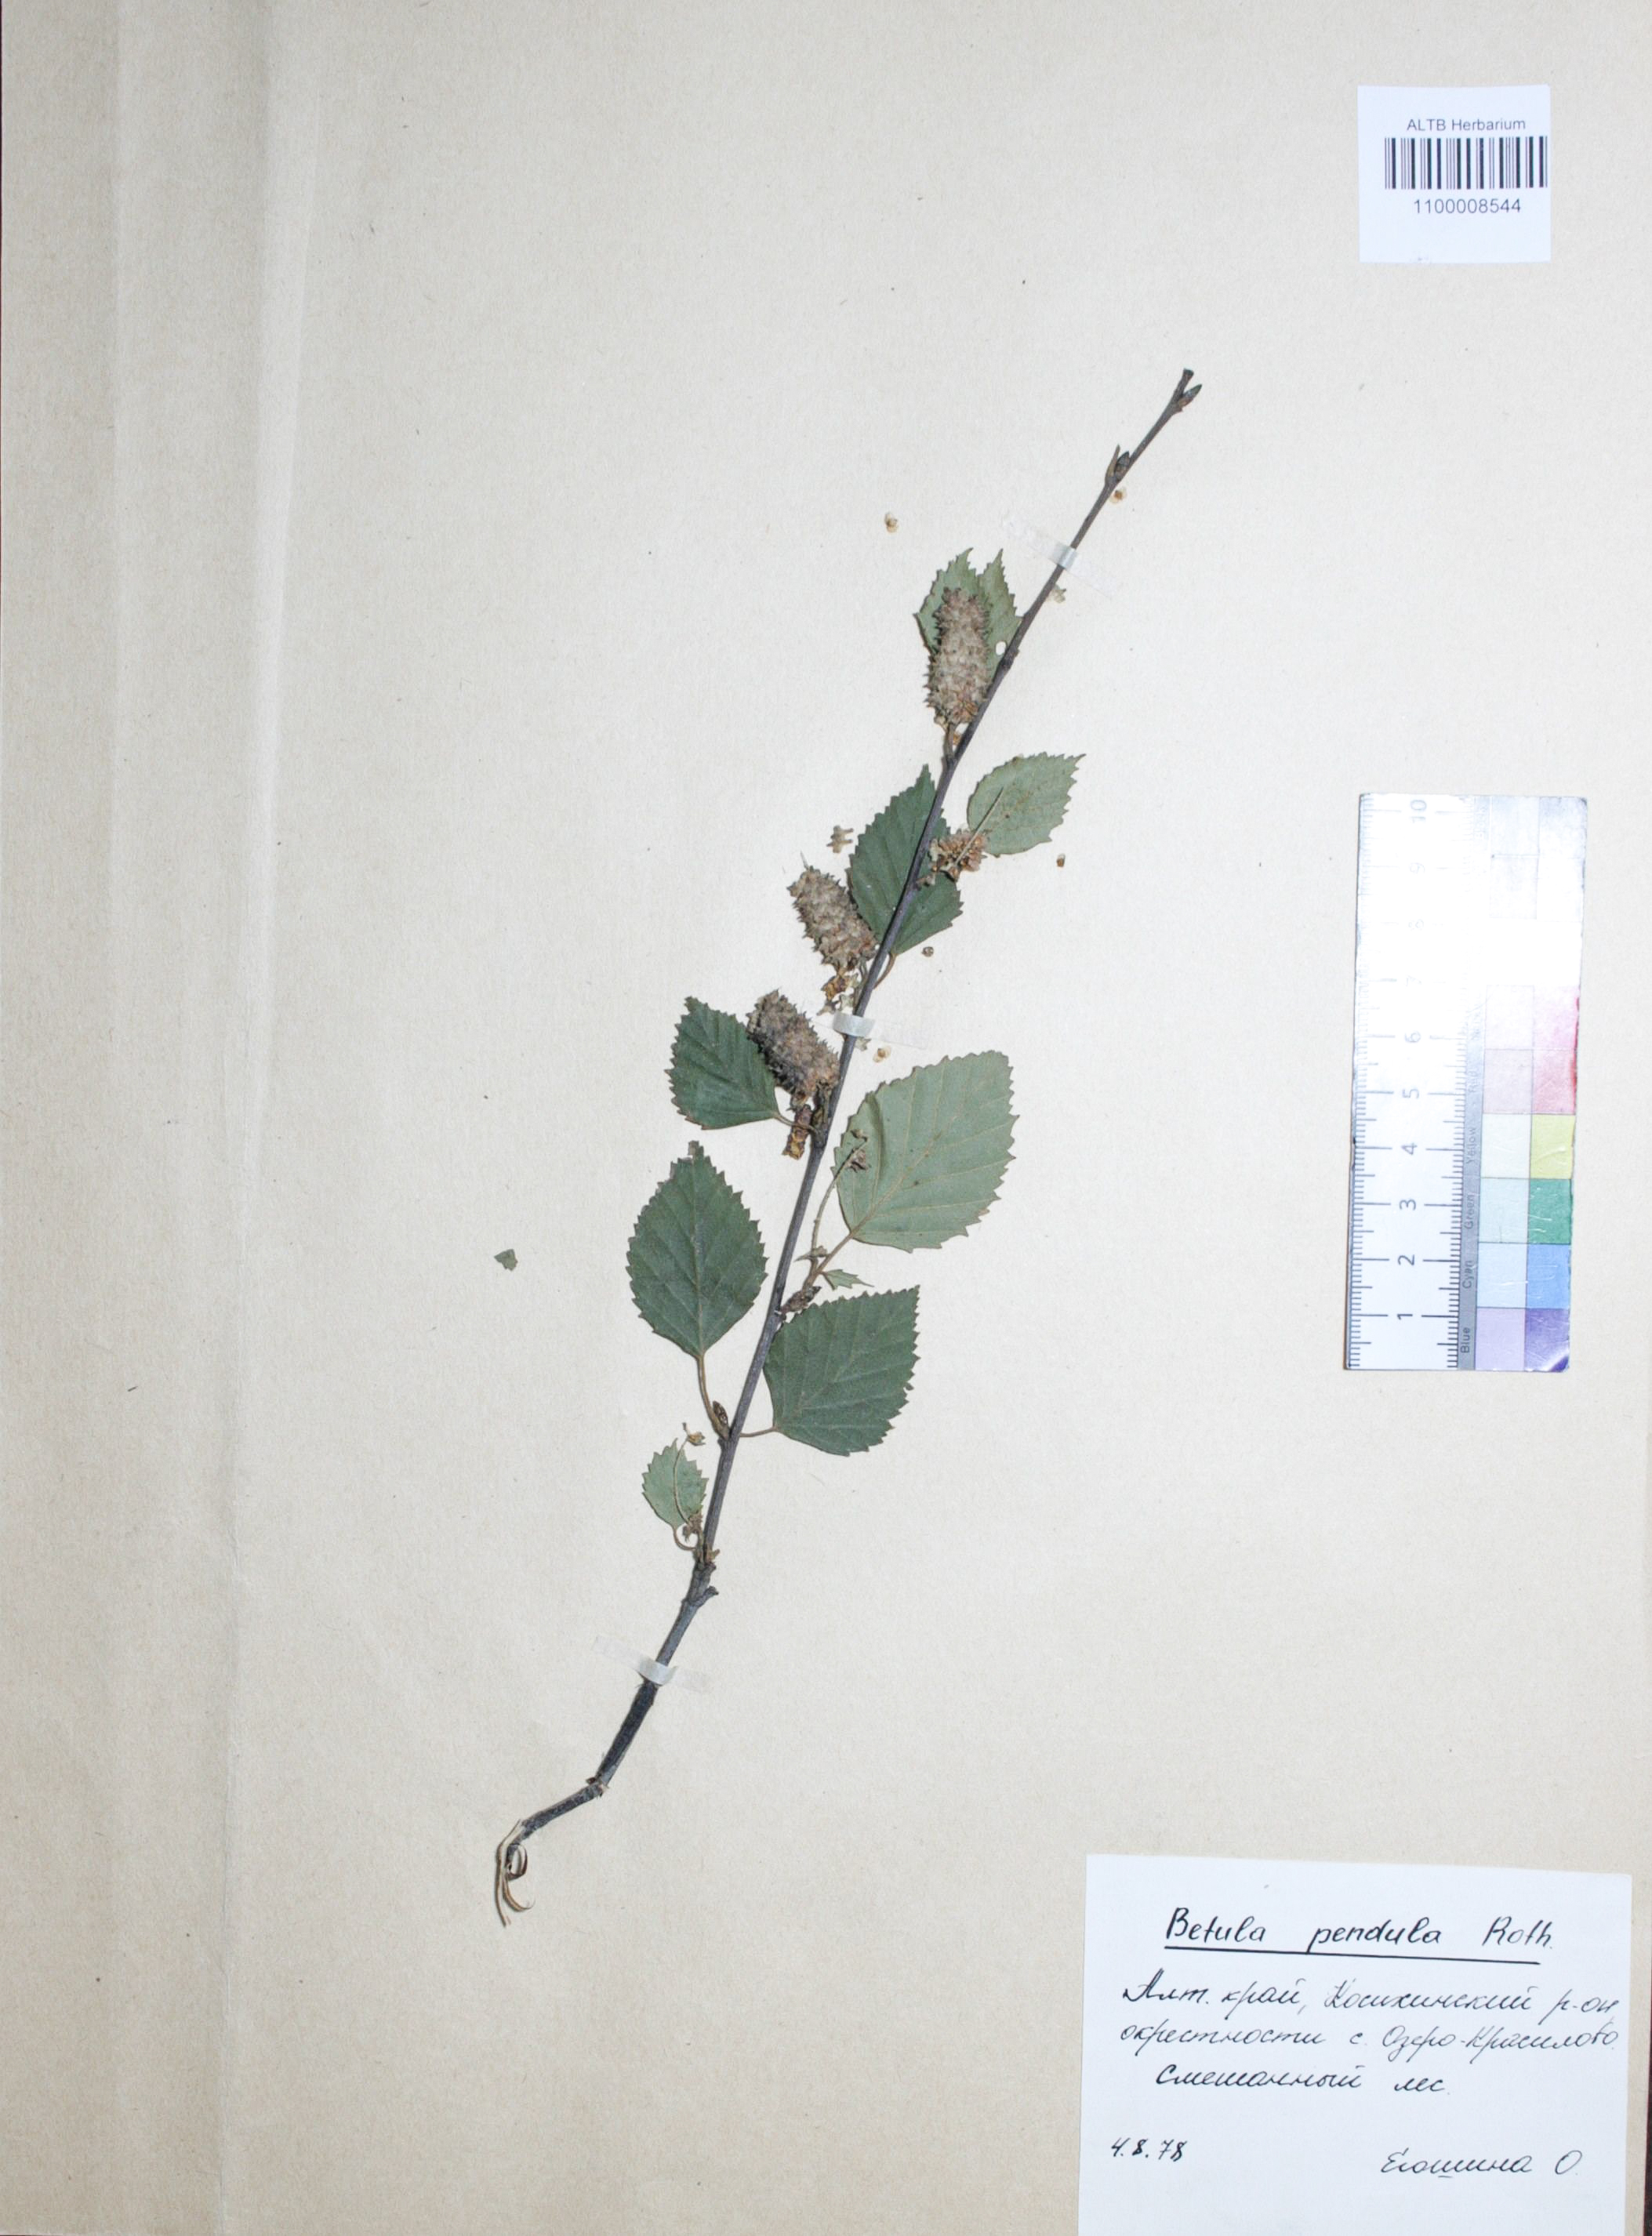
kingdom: Plantae
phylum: Tracheophyta
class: Magnoliopsida
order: Fagales
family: Betulaceae
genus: Betula
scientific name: Betula pendula
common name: Silver birch
